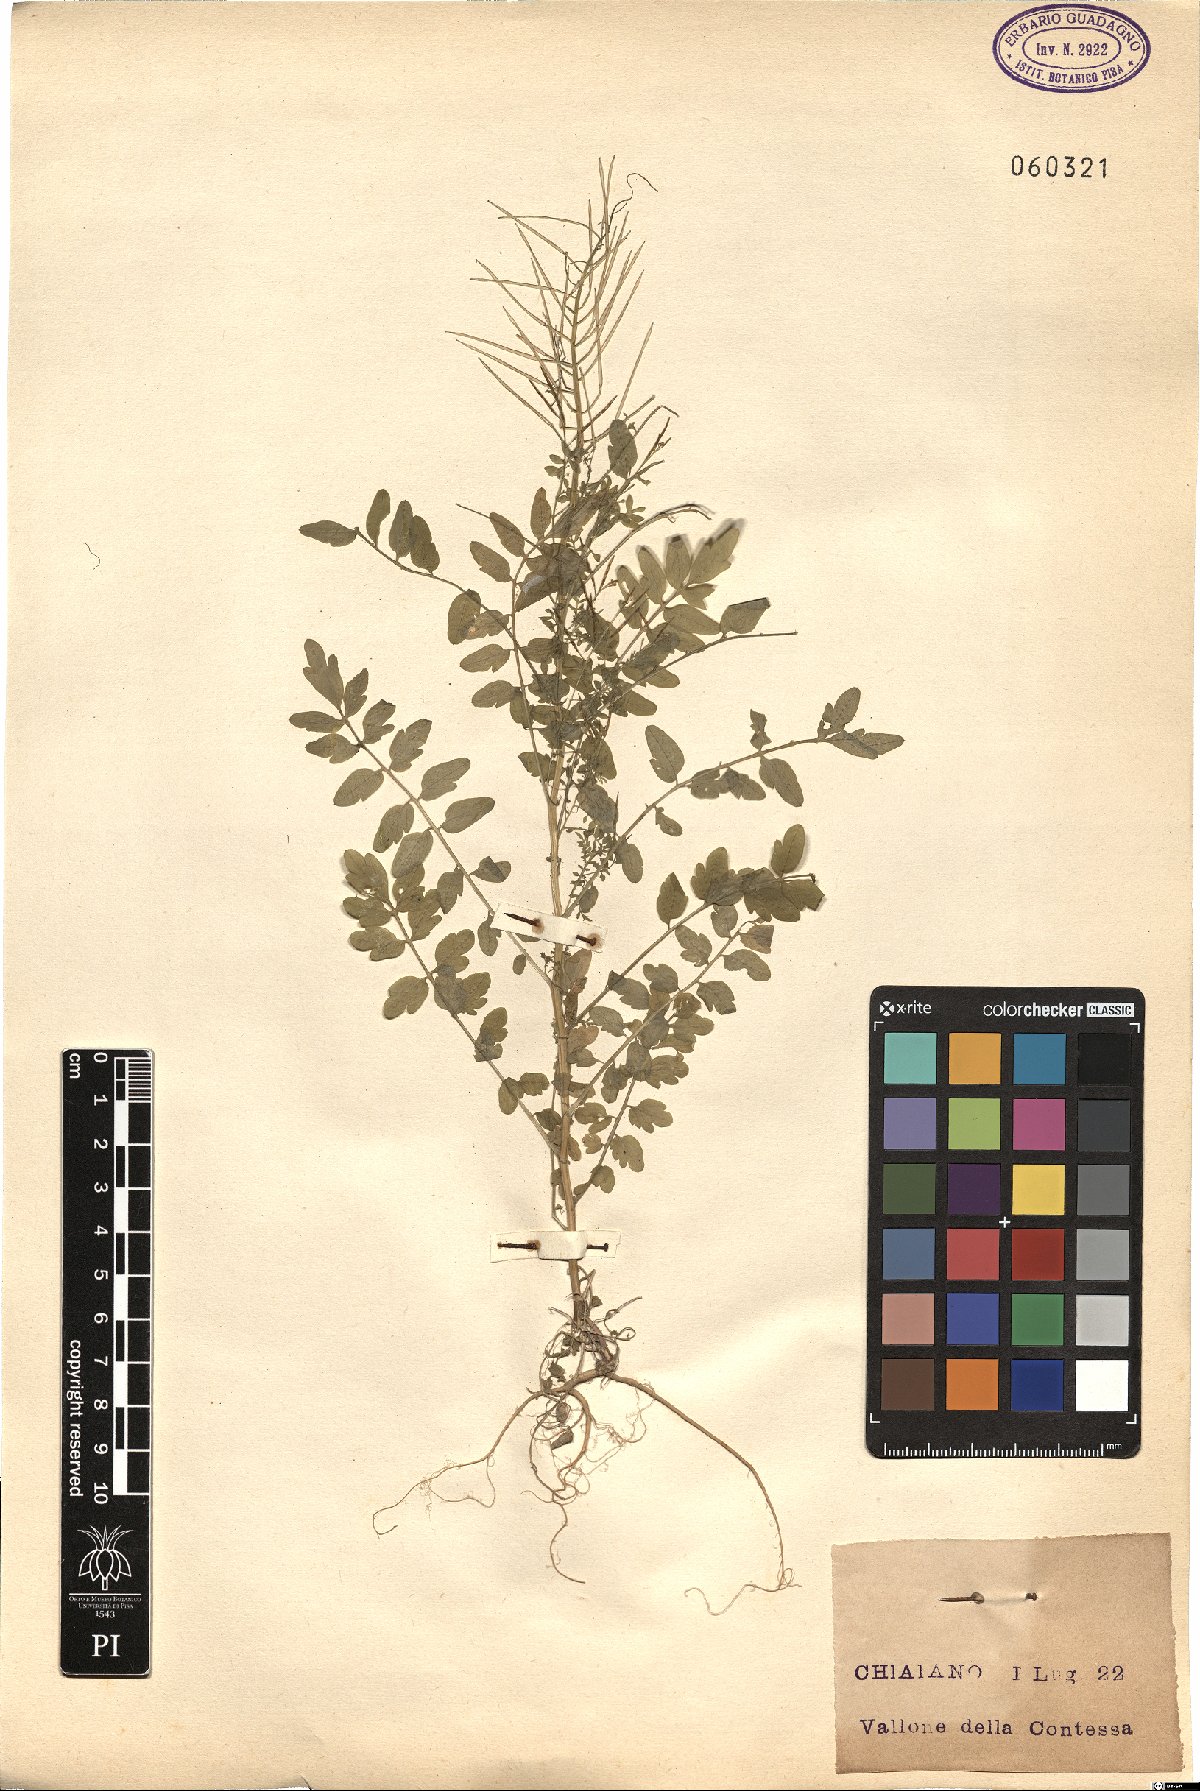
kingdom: Plantae
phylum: Tracheophyta
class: Magnoliopsida
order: Brassicales
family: Brassicaceae
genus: Cardamine
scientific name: Cardamine impatiens
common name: Narrow-leaved bitter-cress
